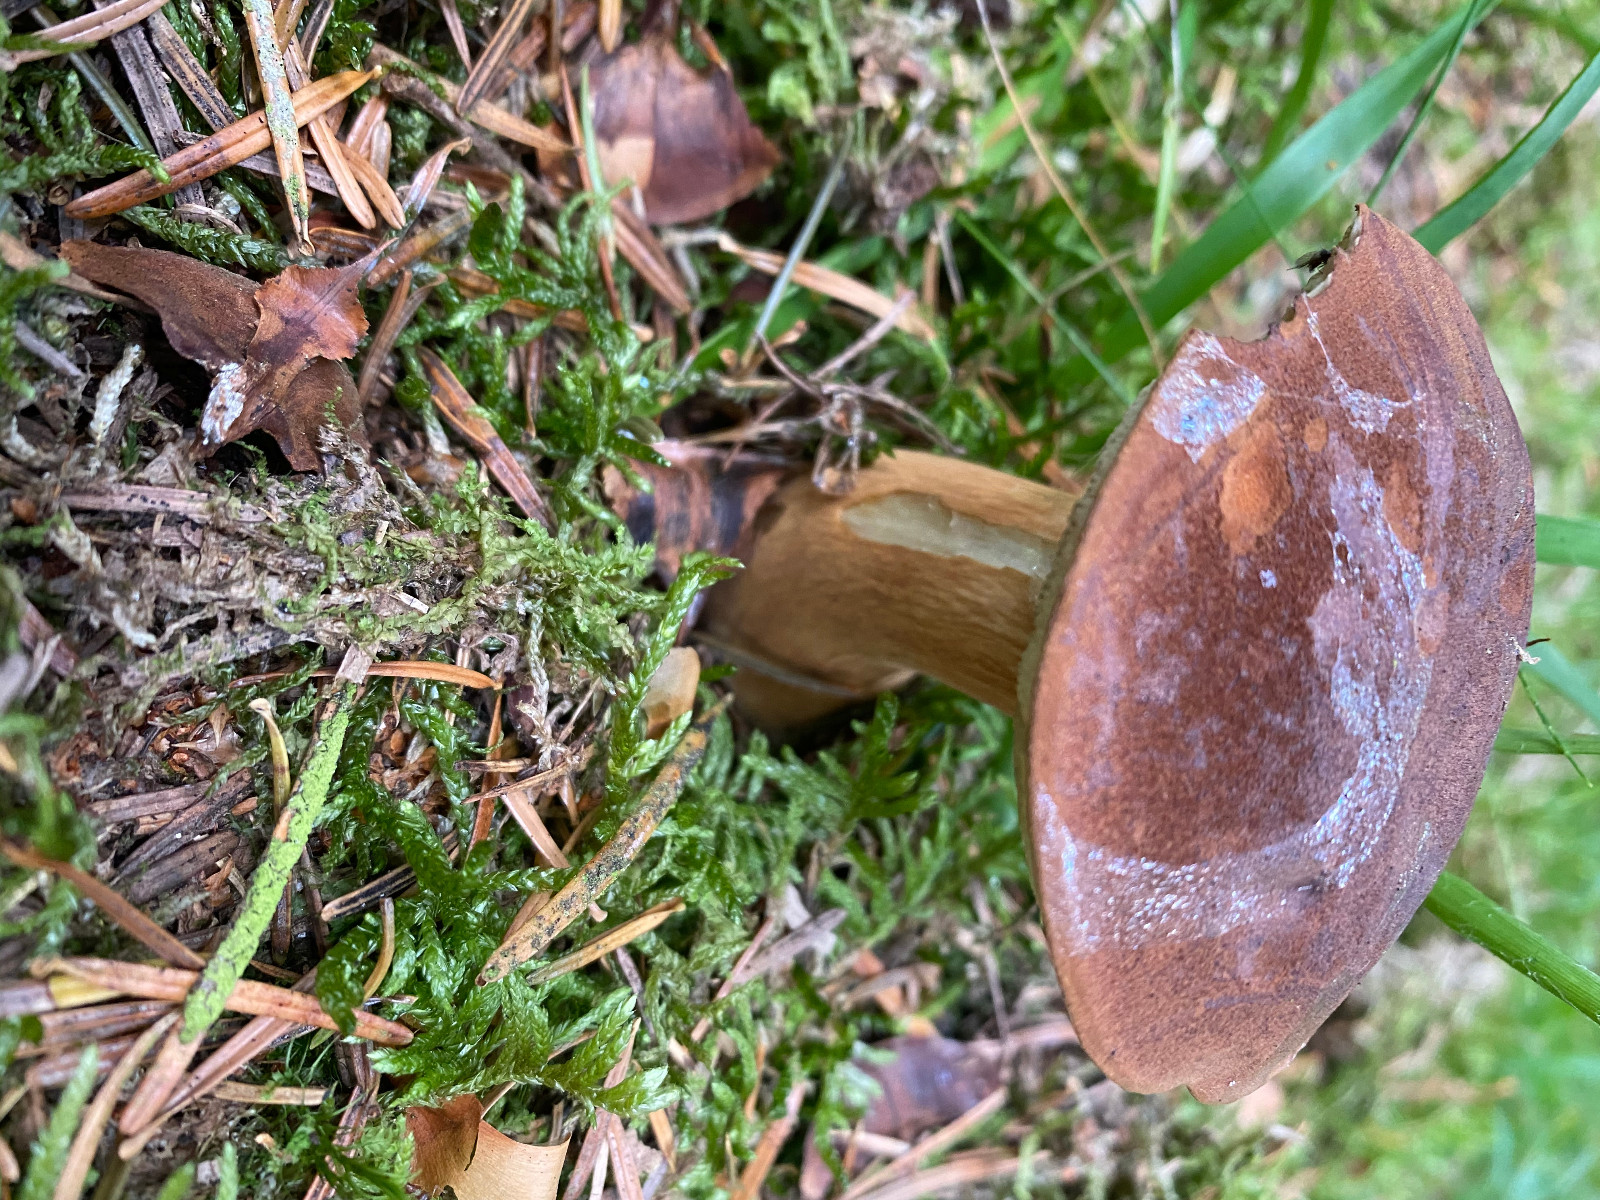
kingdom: Fungi
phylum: Basidiomycota
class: Agaricomycetes
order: Boletales
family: Boletaceae
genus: Imleria
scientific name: Imleria badia
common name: brunstokket rørhat
